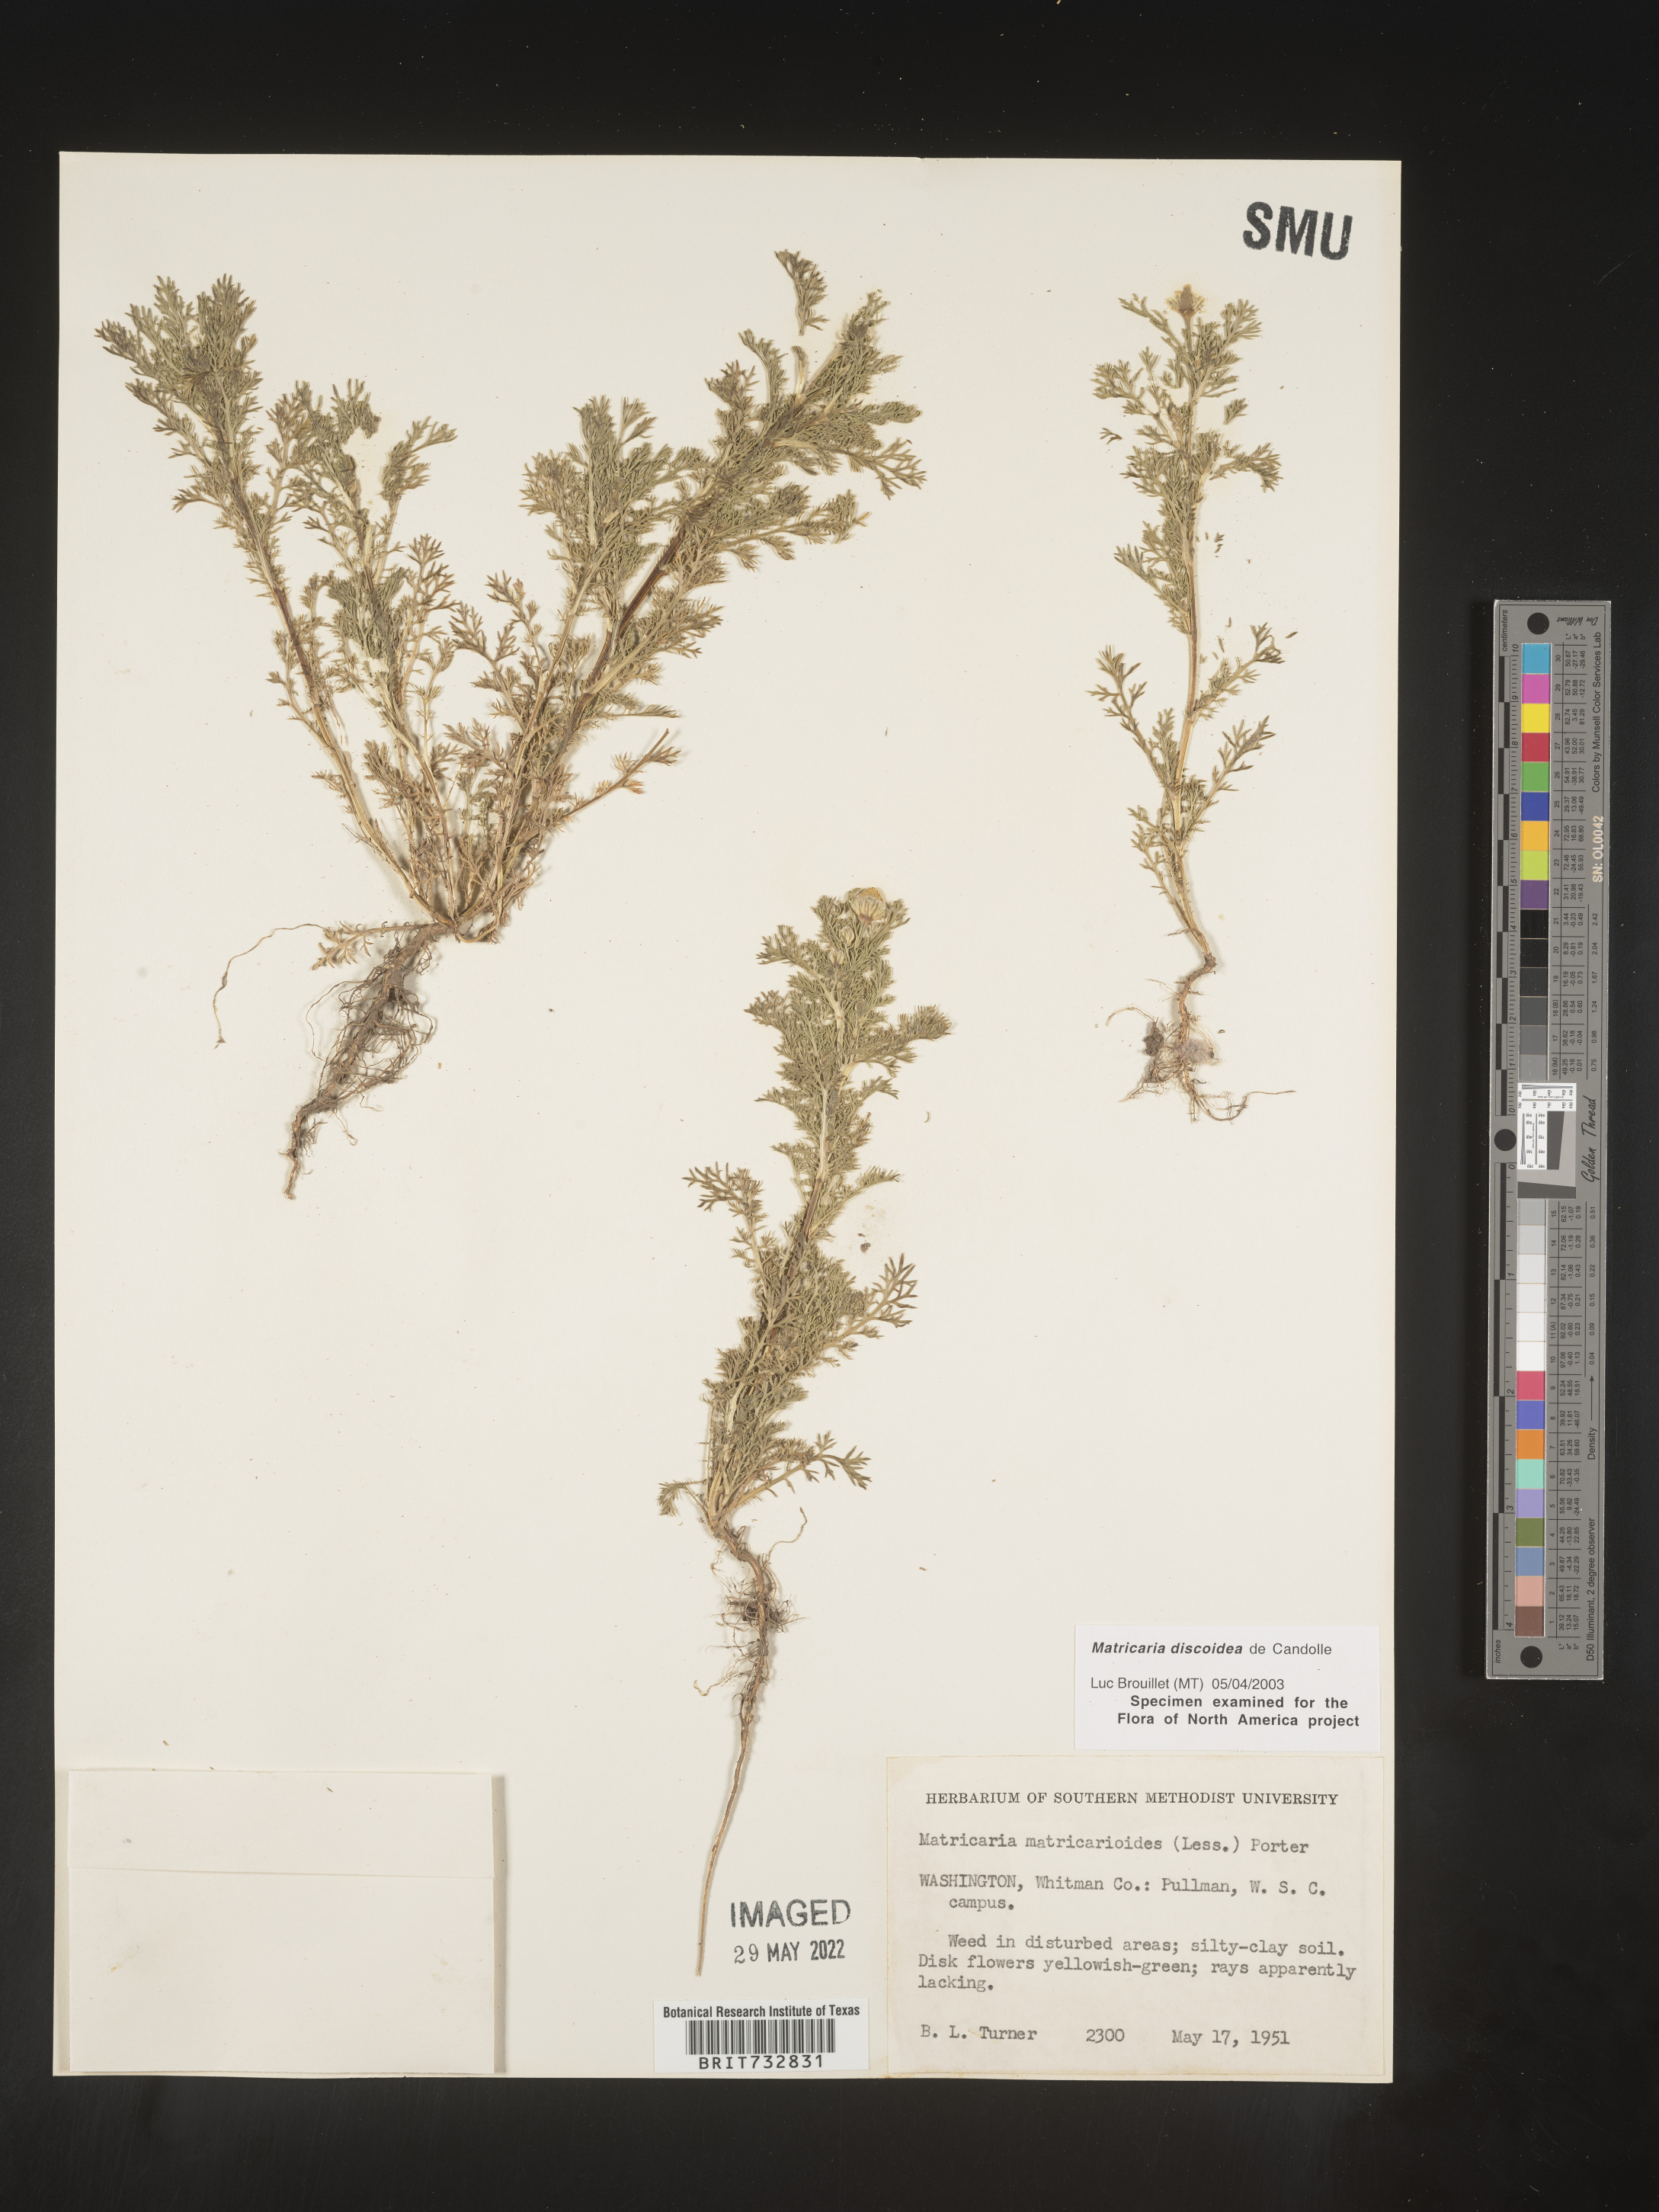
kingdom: Plantae
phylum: Tracheophyta
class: Magnoliopsida
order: Asterales
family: Asteraceae
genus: Matricaria
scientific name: Matricaria discoidea
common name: Disc mayweed
